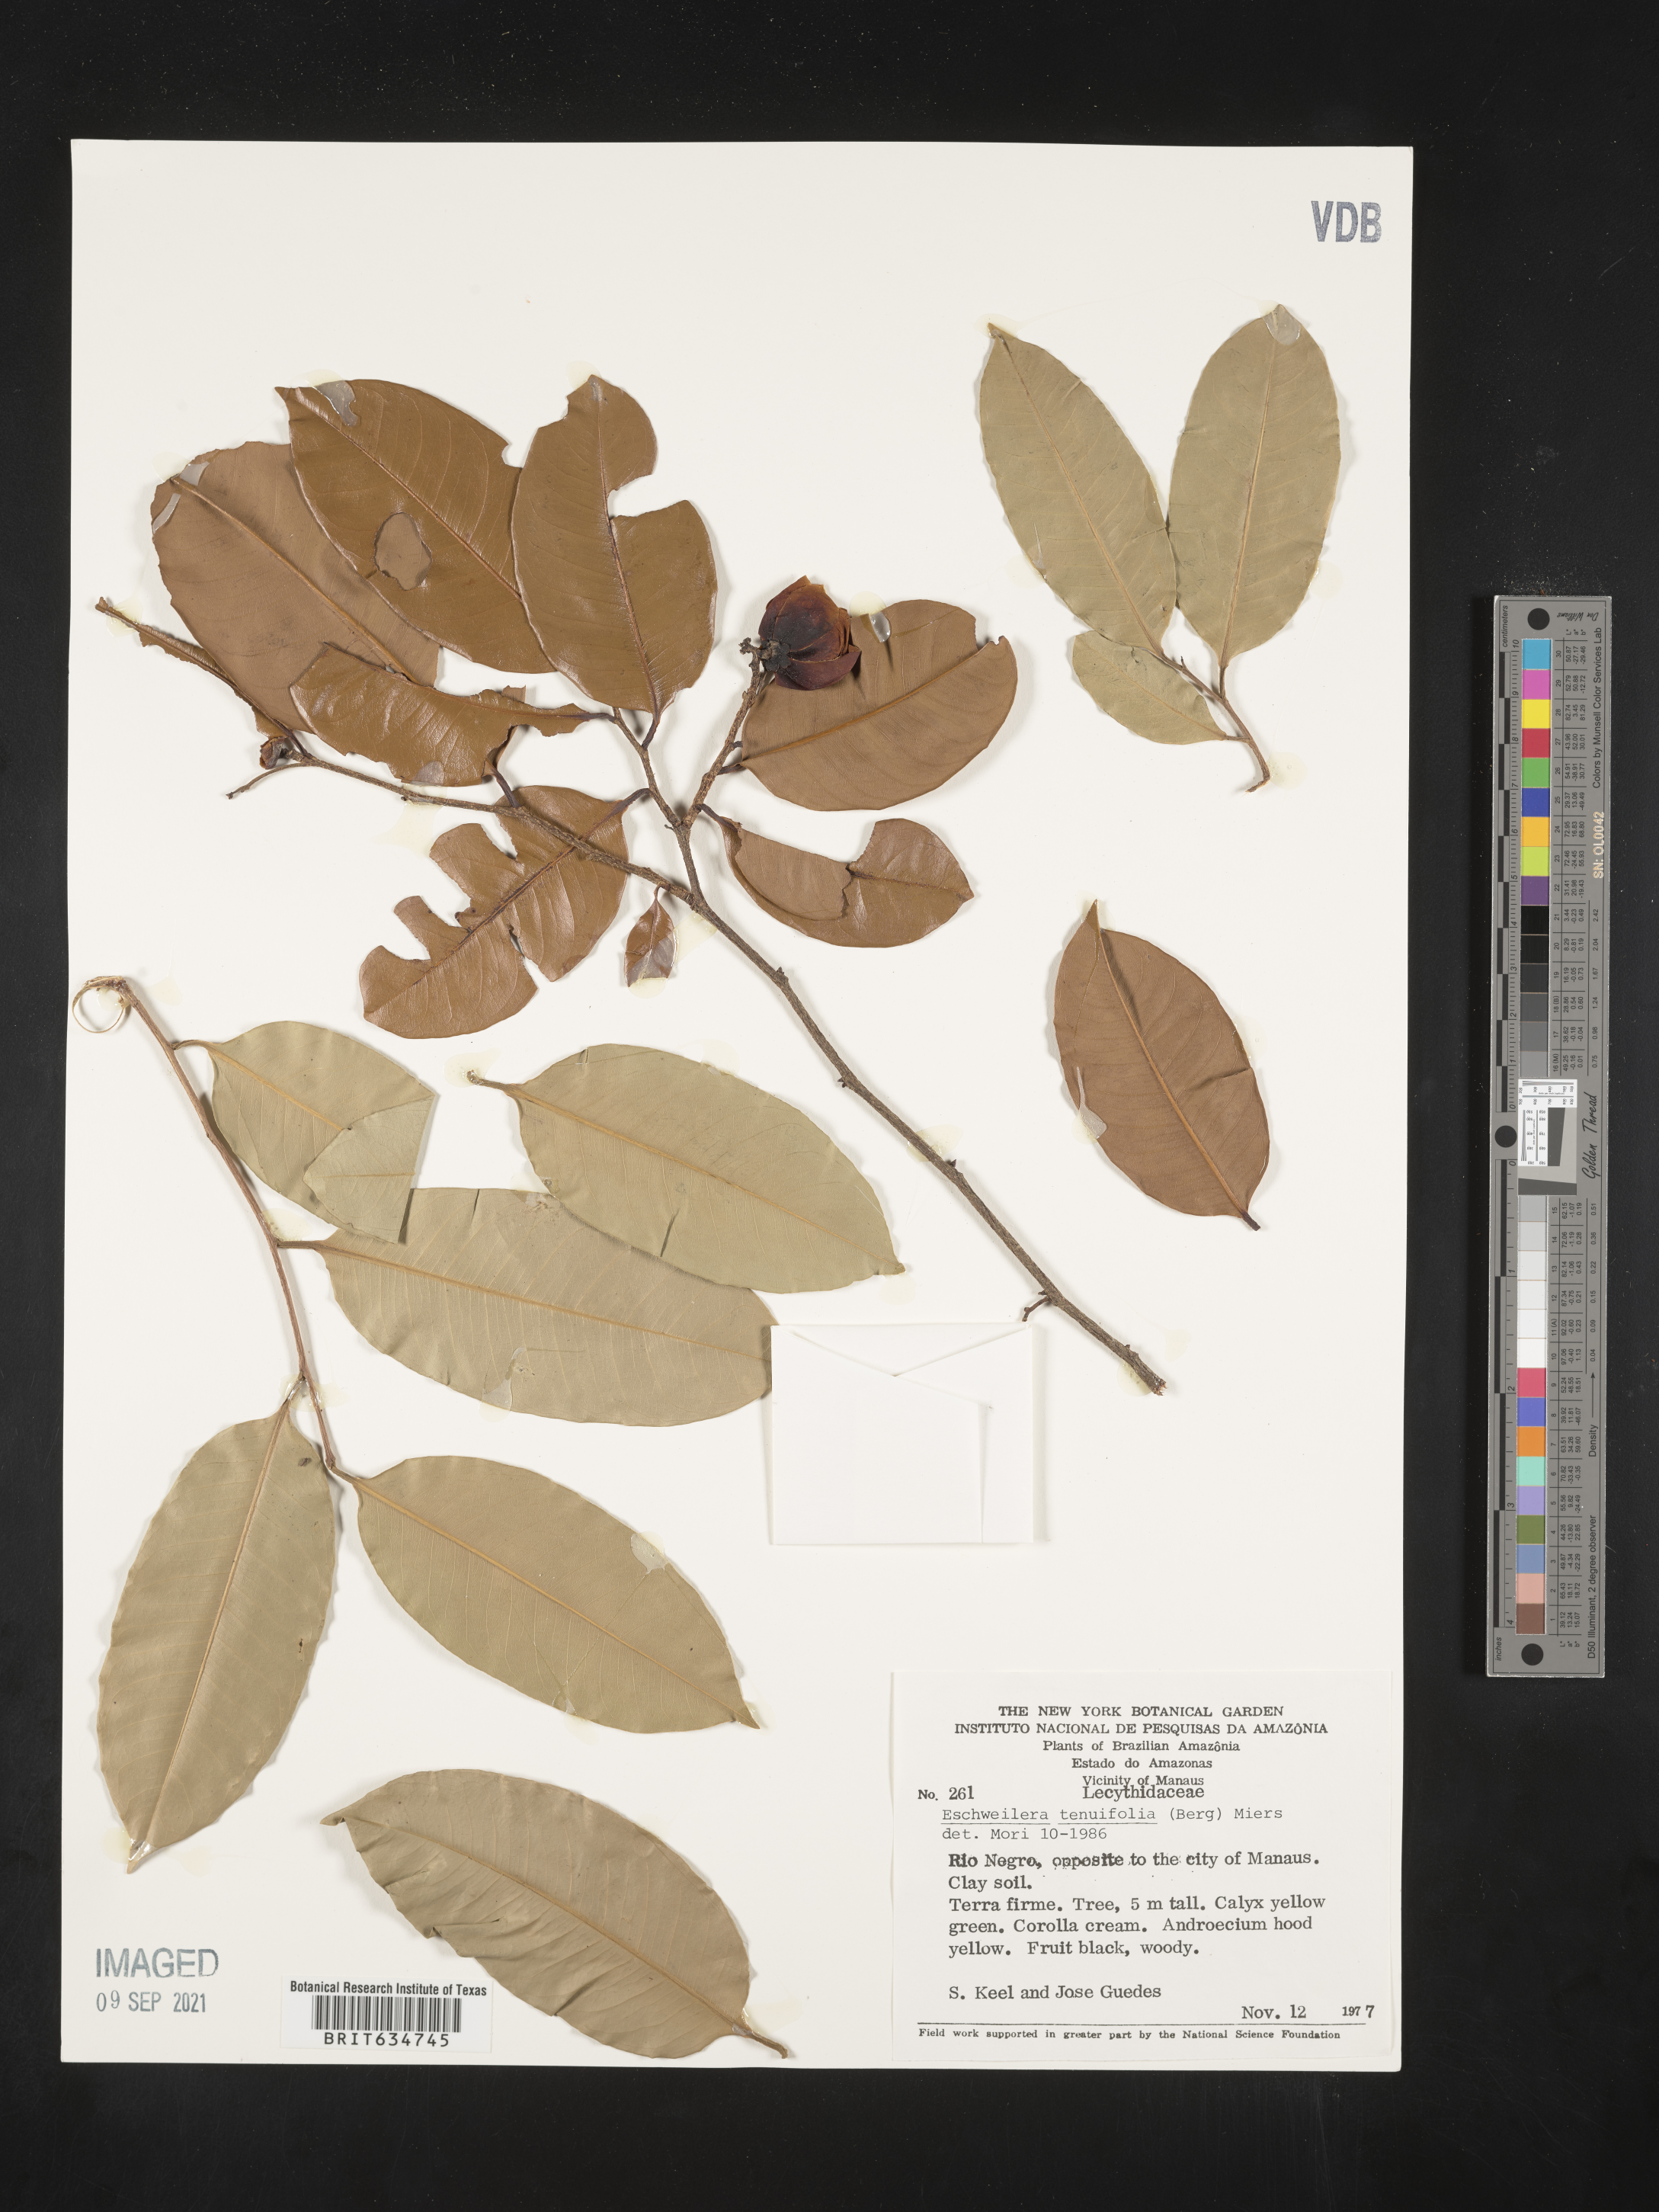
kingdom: Plantae
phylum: Tracheophyta
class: Magnoliopsida
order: Ericales
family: Lecythidaceae
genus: Eschweilera
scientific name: Eschweilera
